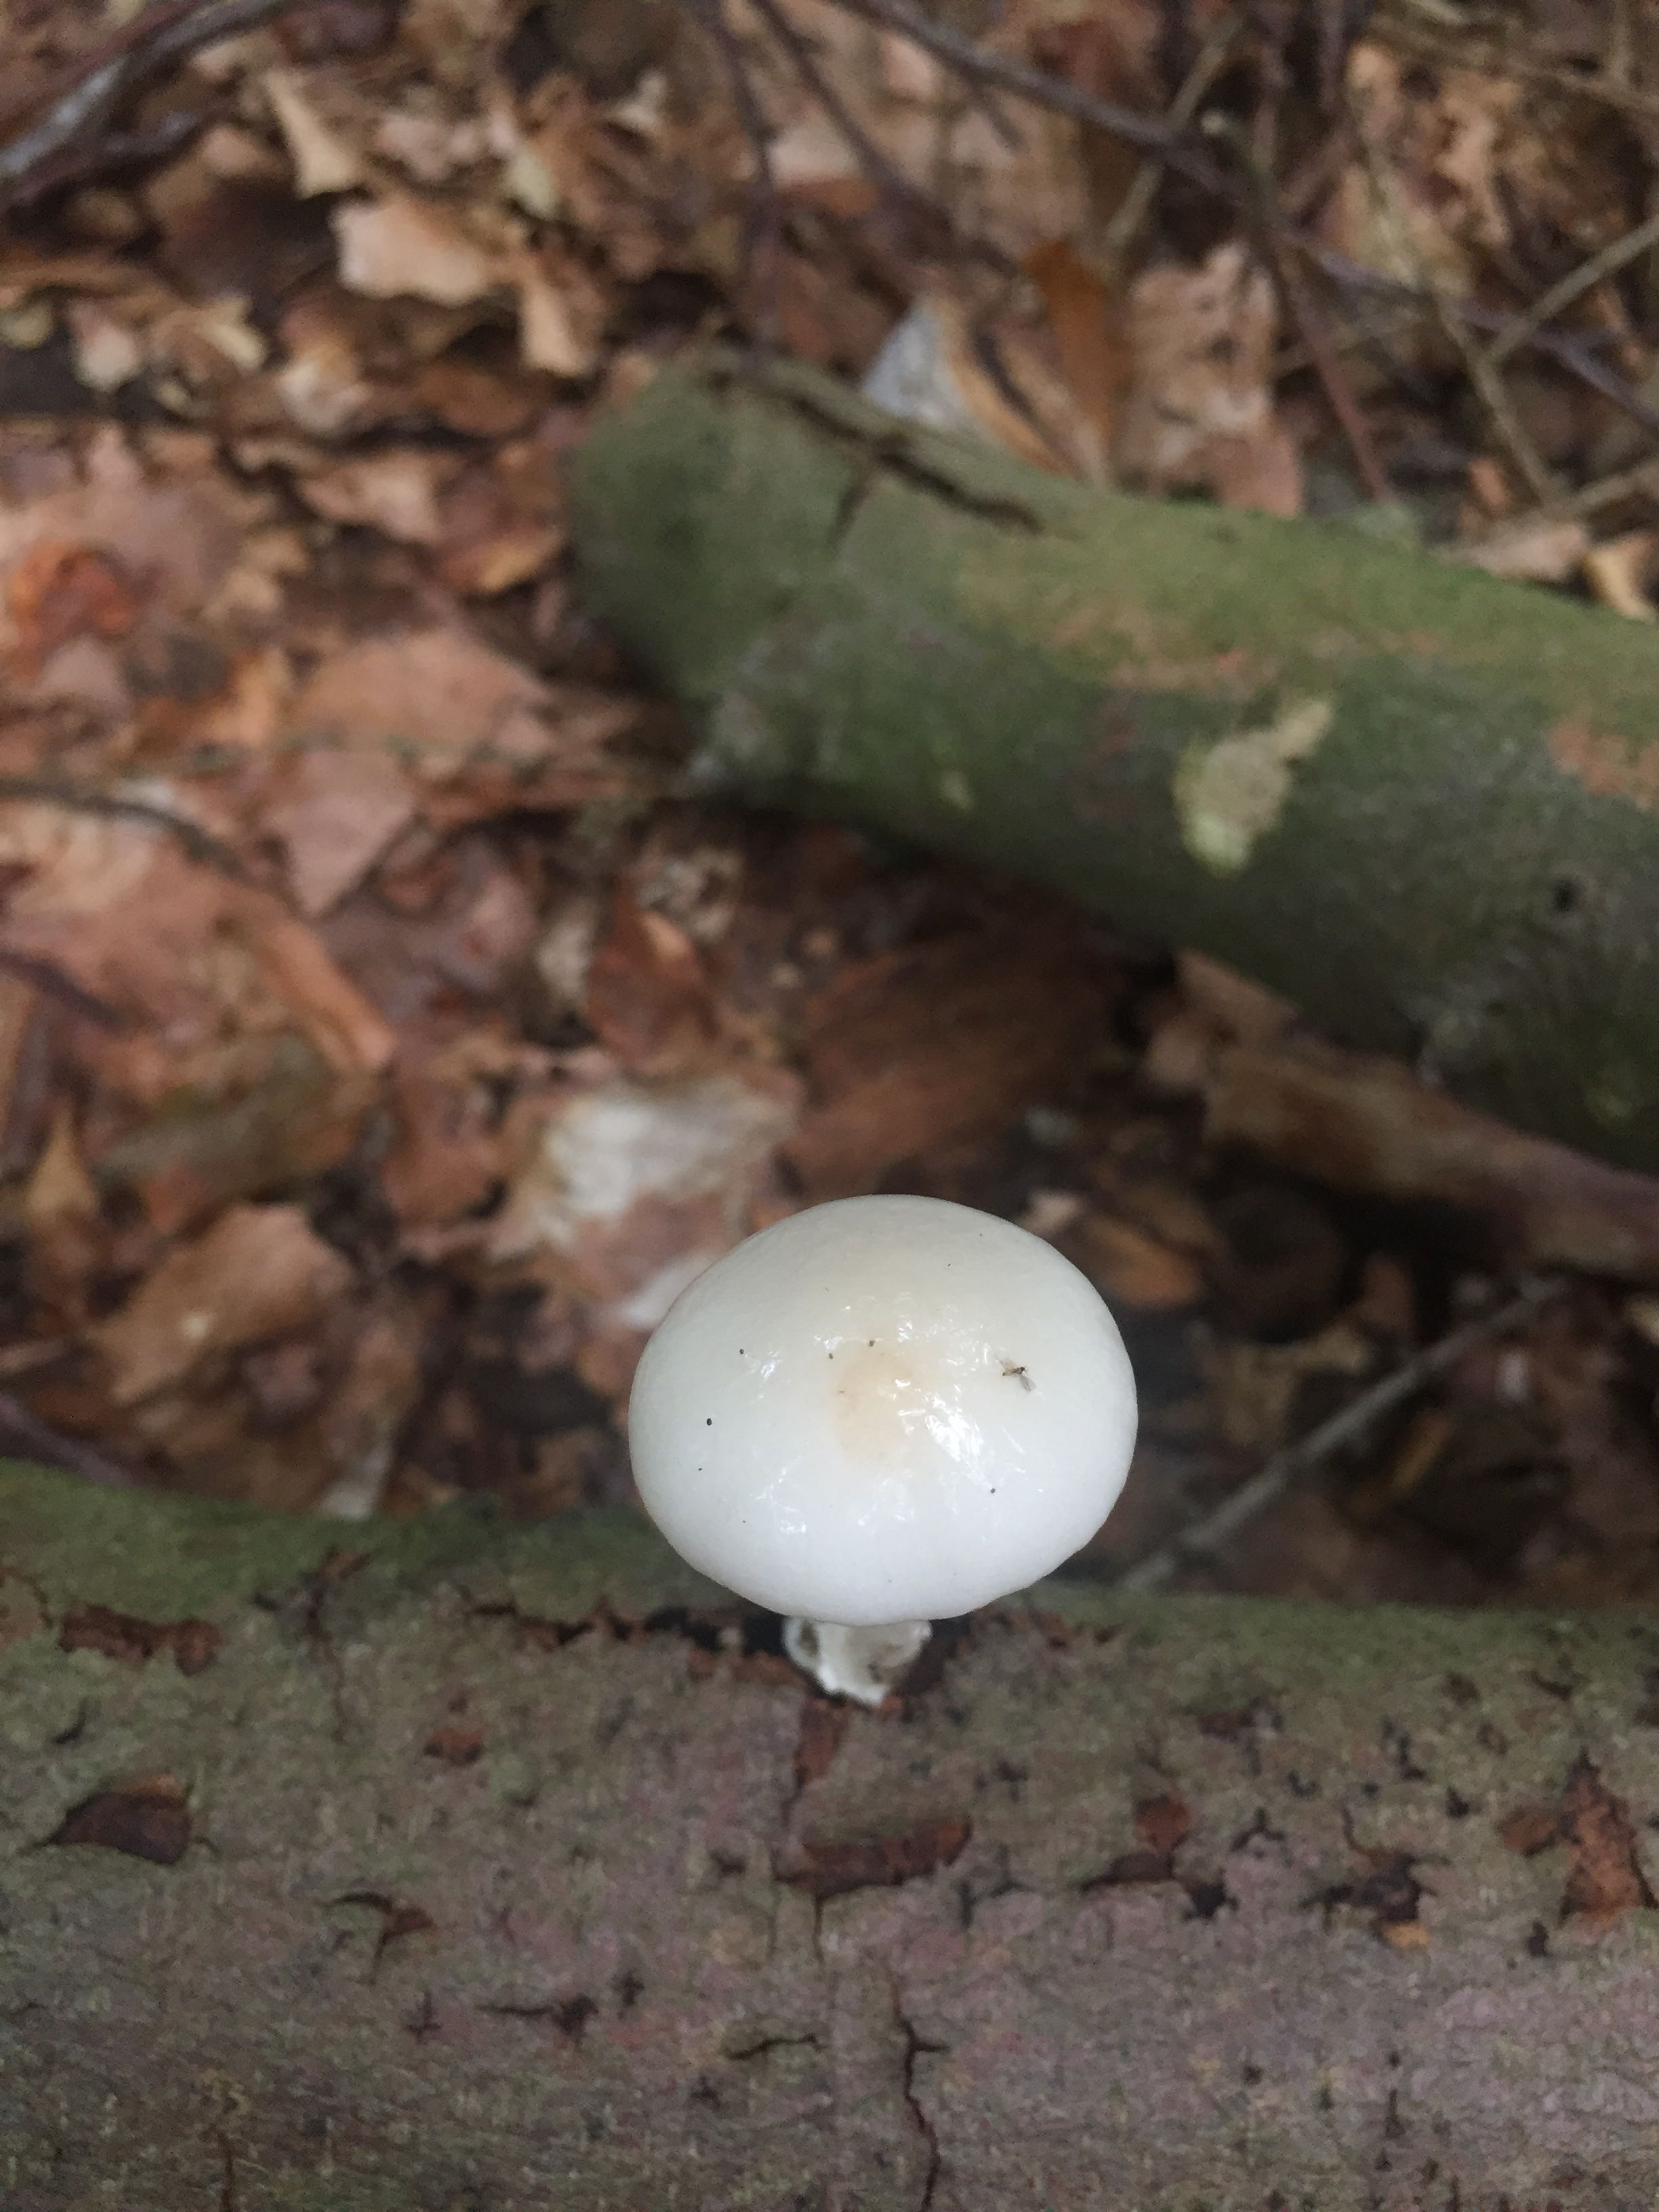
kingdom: Fungi
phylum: Basidiomycota
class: Agaricomycetes
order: Agaricales
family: Physalacriaceae
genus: Mucidula
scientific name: Mucidula mucida
